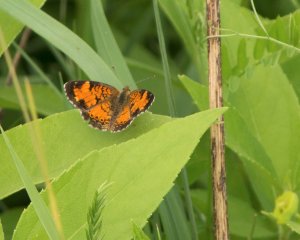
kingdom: Animalia
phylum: Arthropoda
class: Insecta
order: Lepidoptera
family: Nymphalidae
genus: Phyciodes
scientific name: Phyciodes tharos
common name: Northern Crescent
